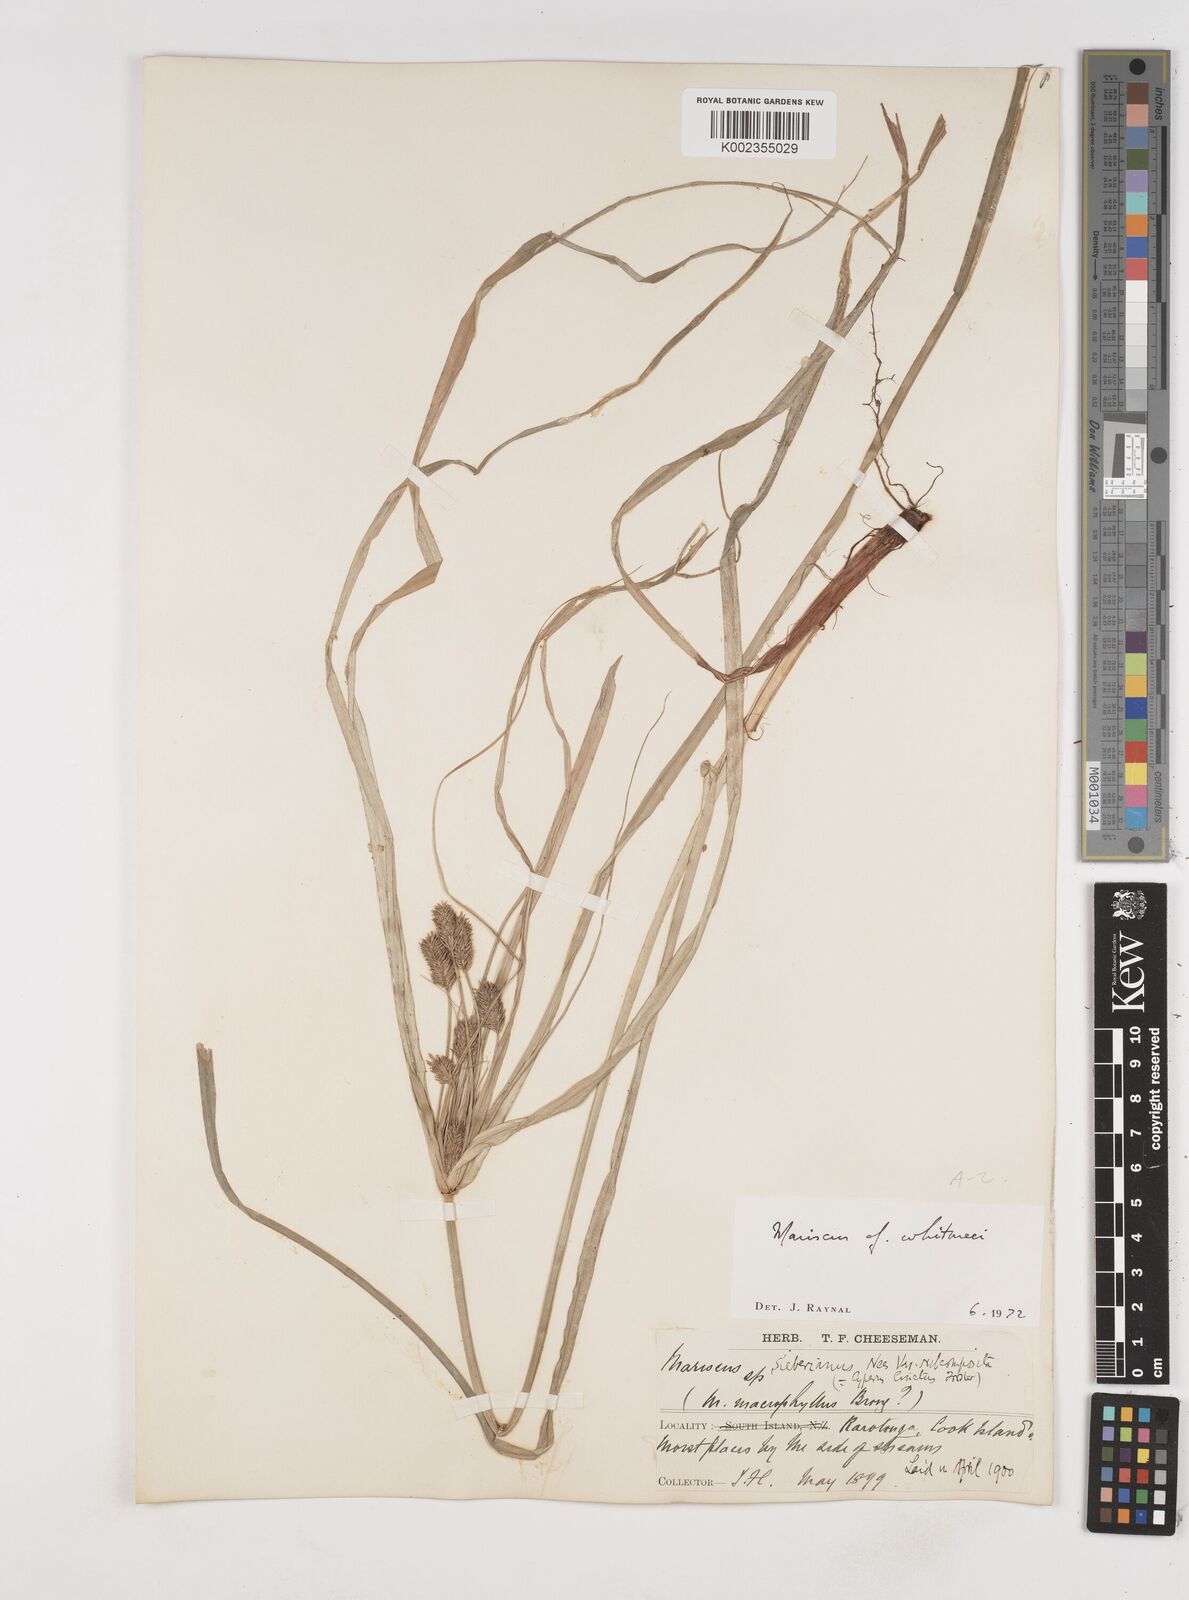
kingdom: Plantae
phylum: Tracheophyta
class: Liliopsida
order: Poales
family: Cyperaceae
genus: Cyperus
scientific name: Cyperus whitmeei
